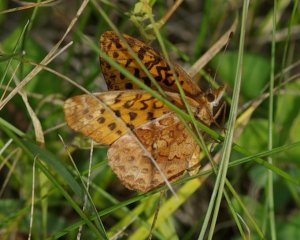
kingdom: Animalia
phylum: Arthropoda
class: Insecta
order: Lepidoptera
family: Nymphalidae
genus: Clossiana
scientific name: Clossiana toddi
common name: Meadow Fritillary
